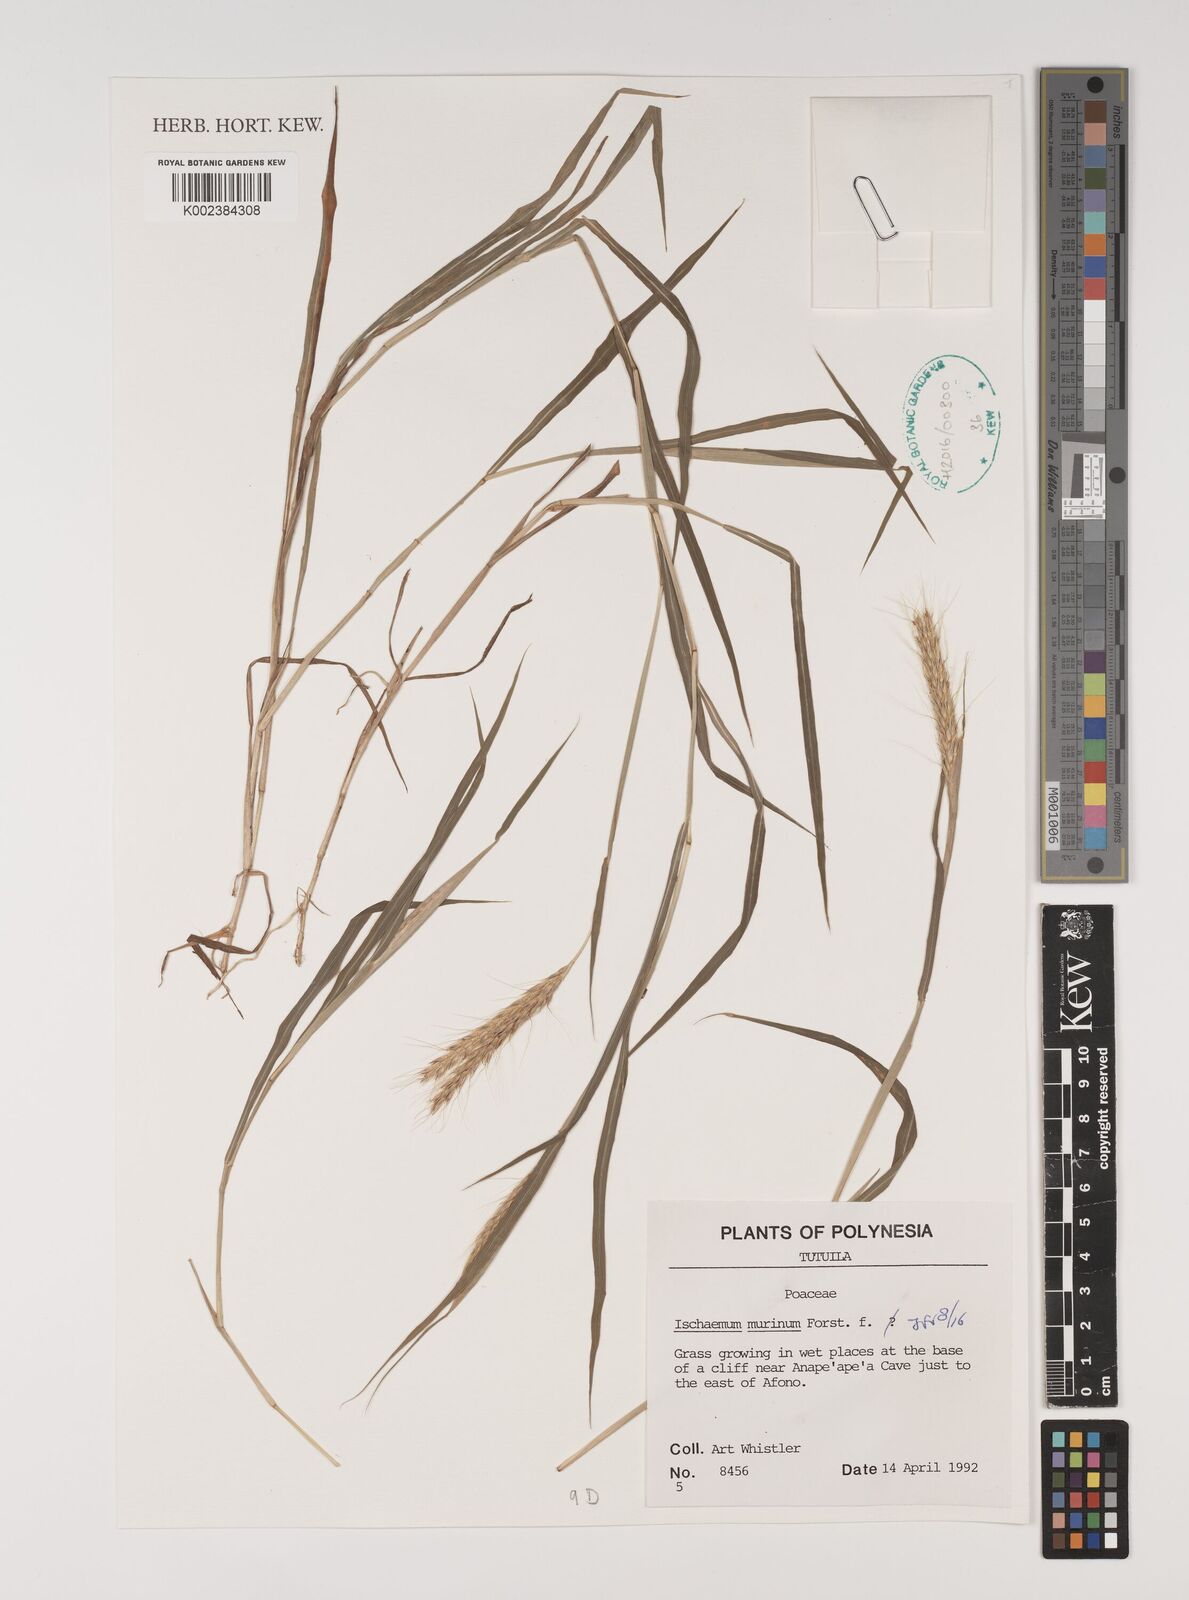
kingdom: Plantae
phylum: Tracheophyta
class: Liliopsida
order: Poales
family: Poaceae
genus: Ischaemum
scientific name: Ischaemum murinum
